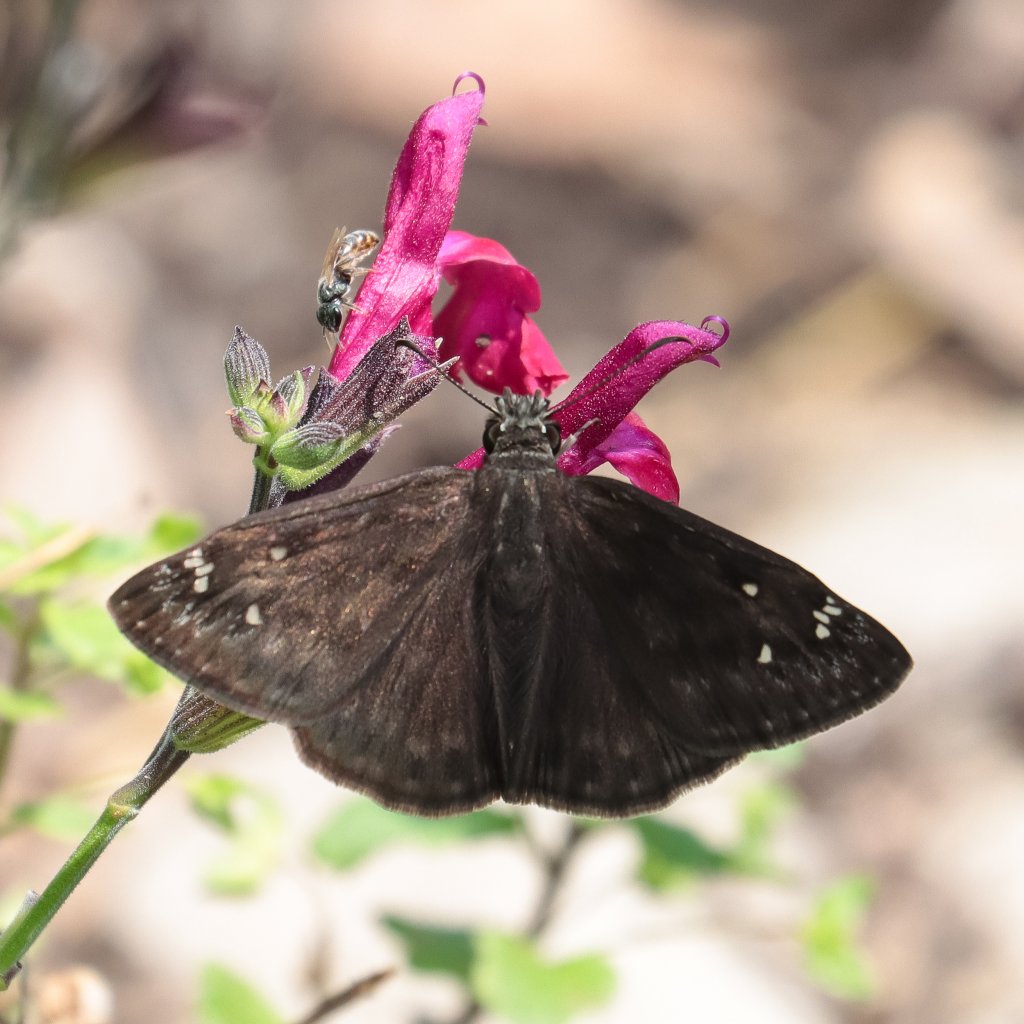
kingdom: Animalia
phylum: Arthropoda
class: Insecta
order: Lepidoptera
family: Hesperiidae
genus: Gesta
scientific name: Gesta
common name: Horace's Duskywing
